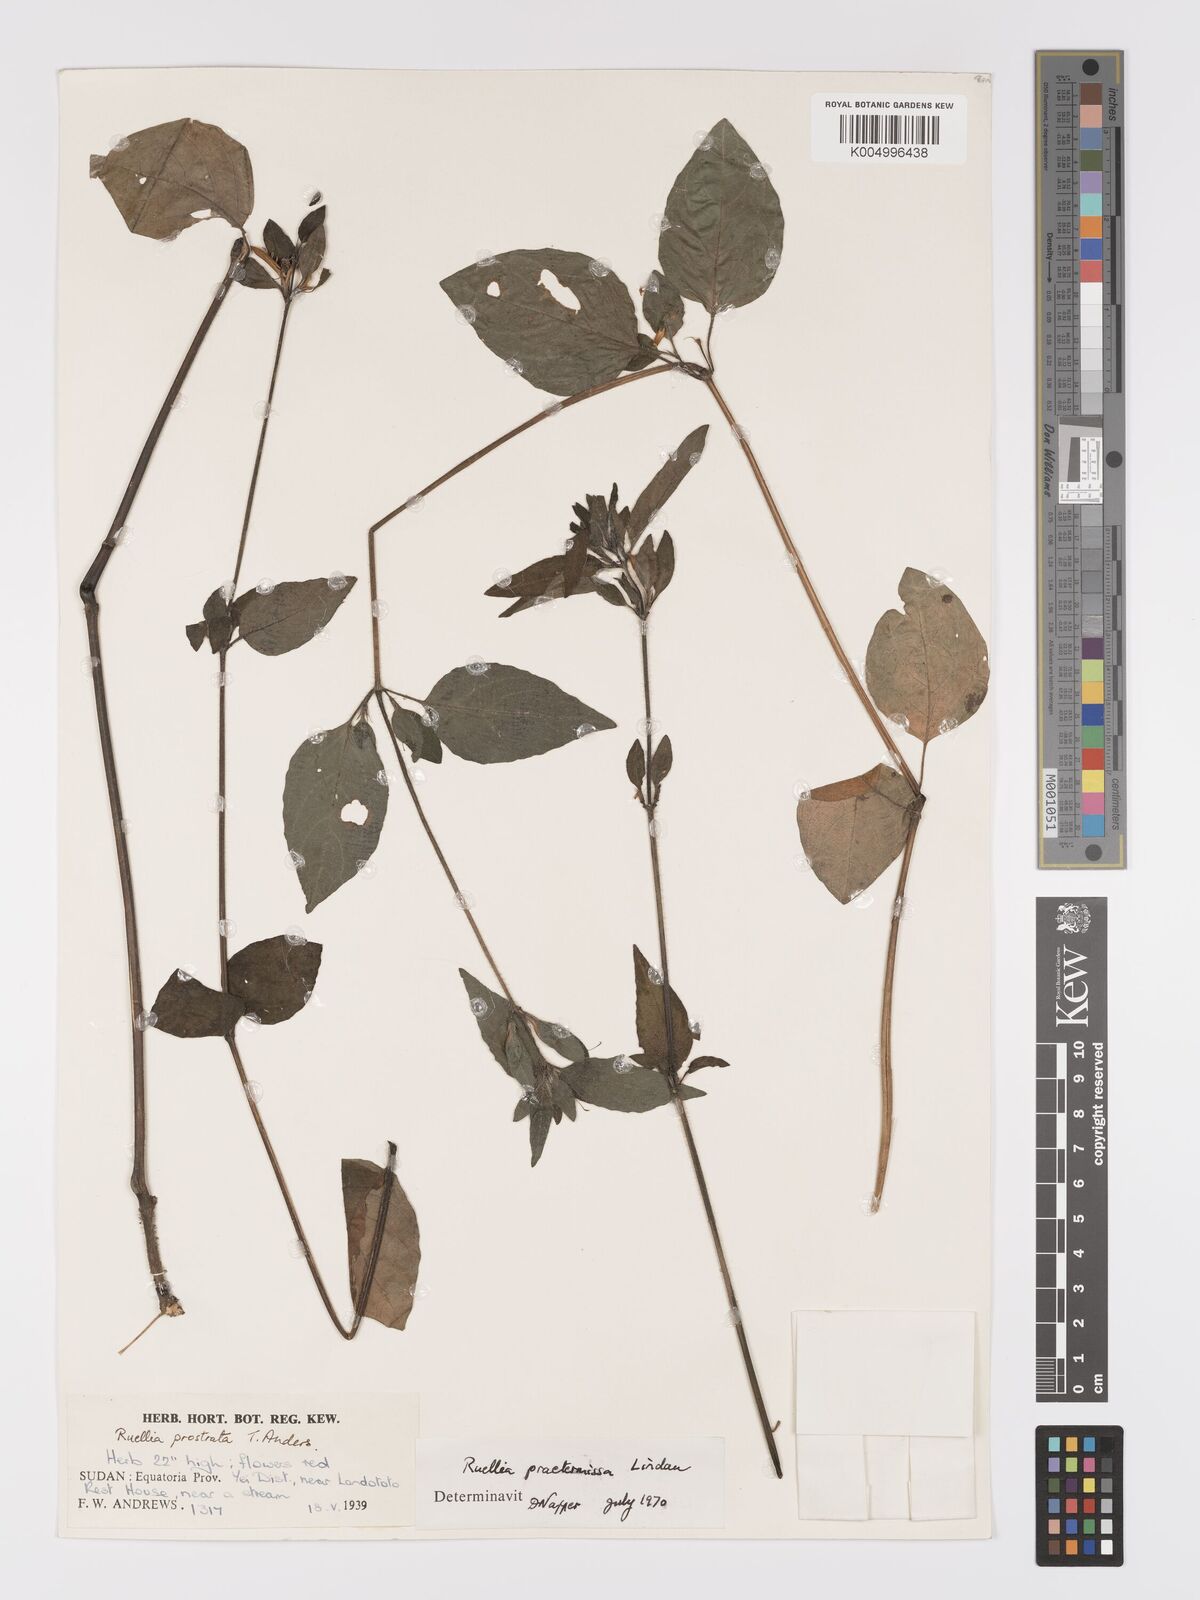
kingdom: Plantae
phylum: Tracheophyta
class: Magnoliopsida
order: Lamiales
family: Acanthaceae
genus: Ruellia
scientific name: Ruellia praetermissa
